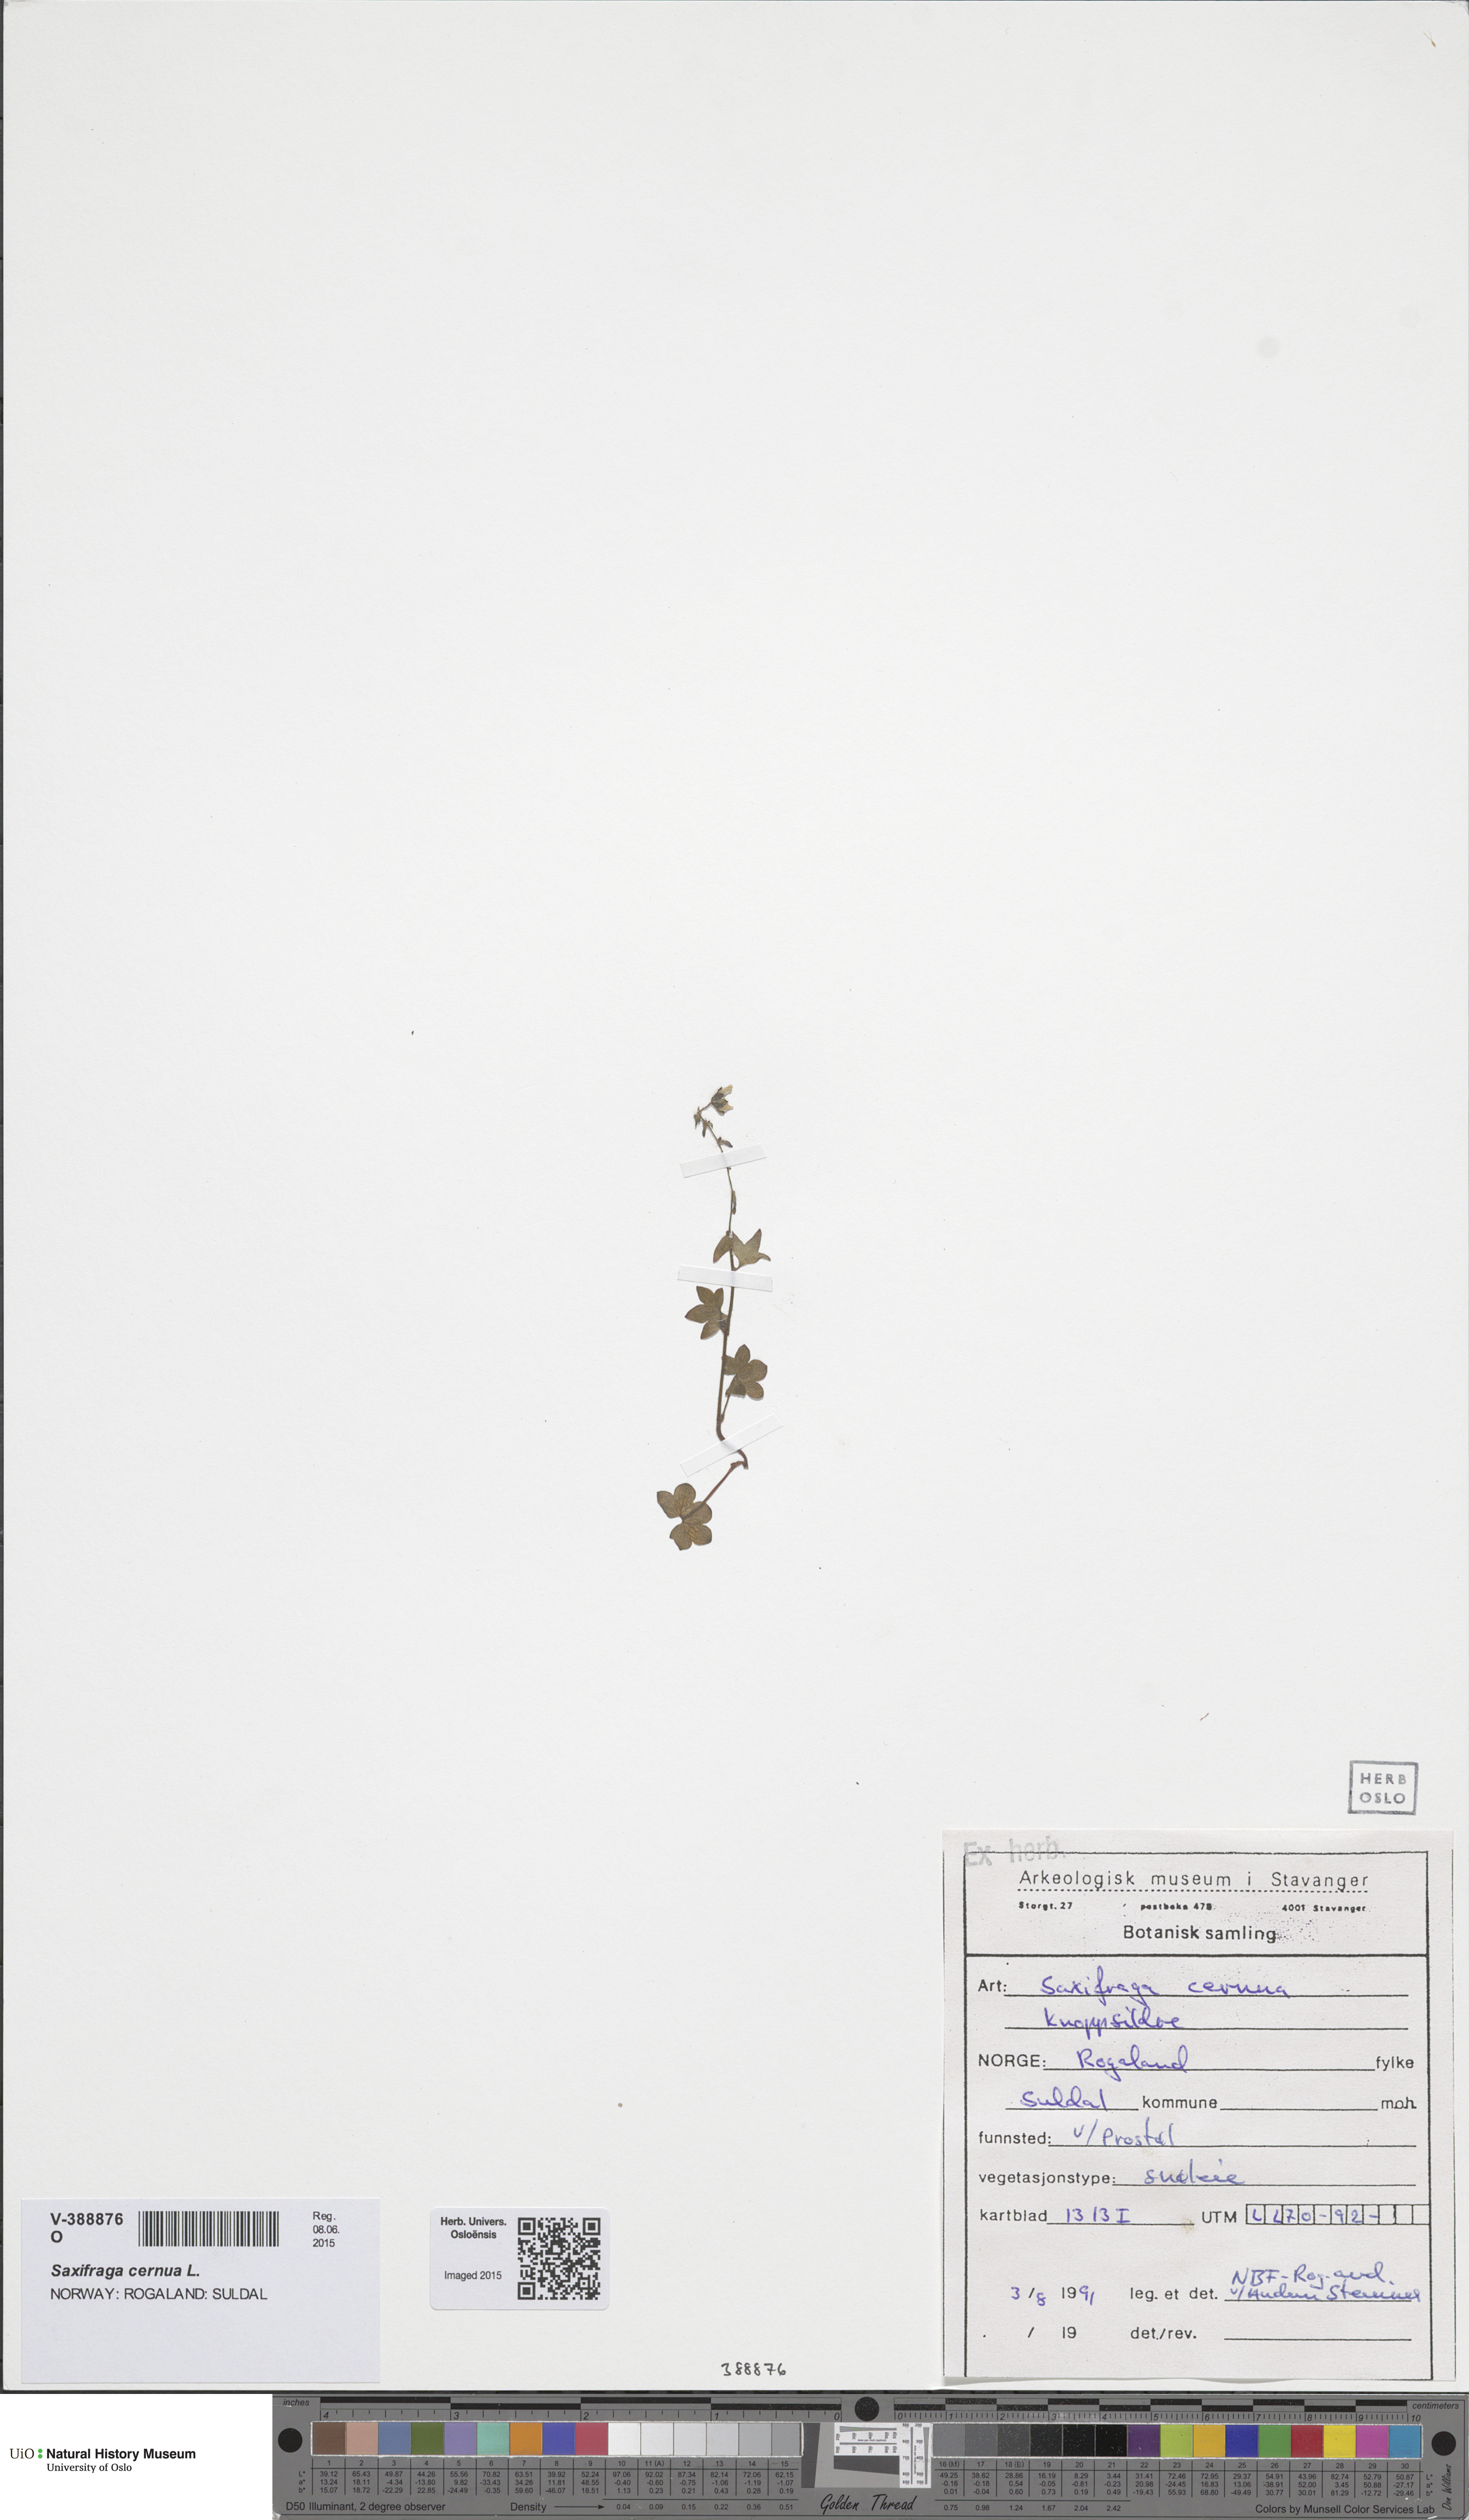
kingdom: Plantae
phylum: Tracheophyta
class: Magnoliopsida
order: Saxifragales
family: Saxifragaceae
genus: Saxifraga
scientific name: Saxifraga cernua
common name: Drooping saxifrage
